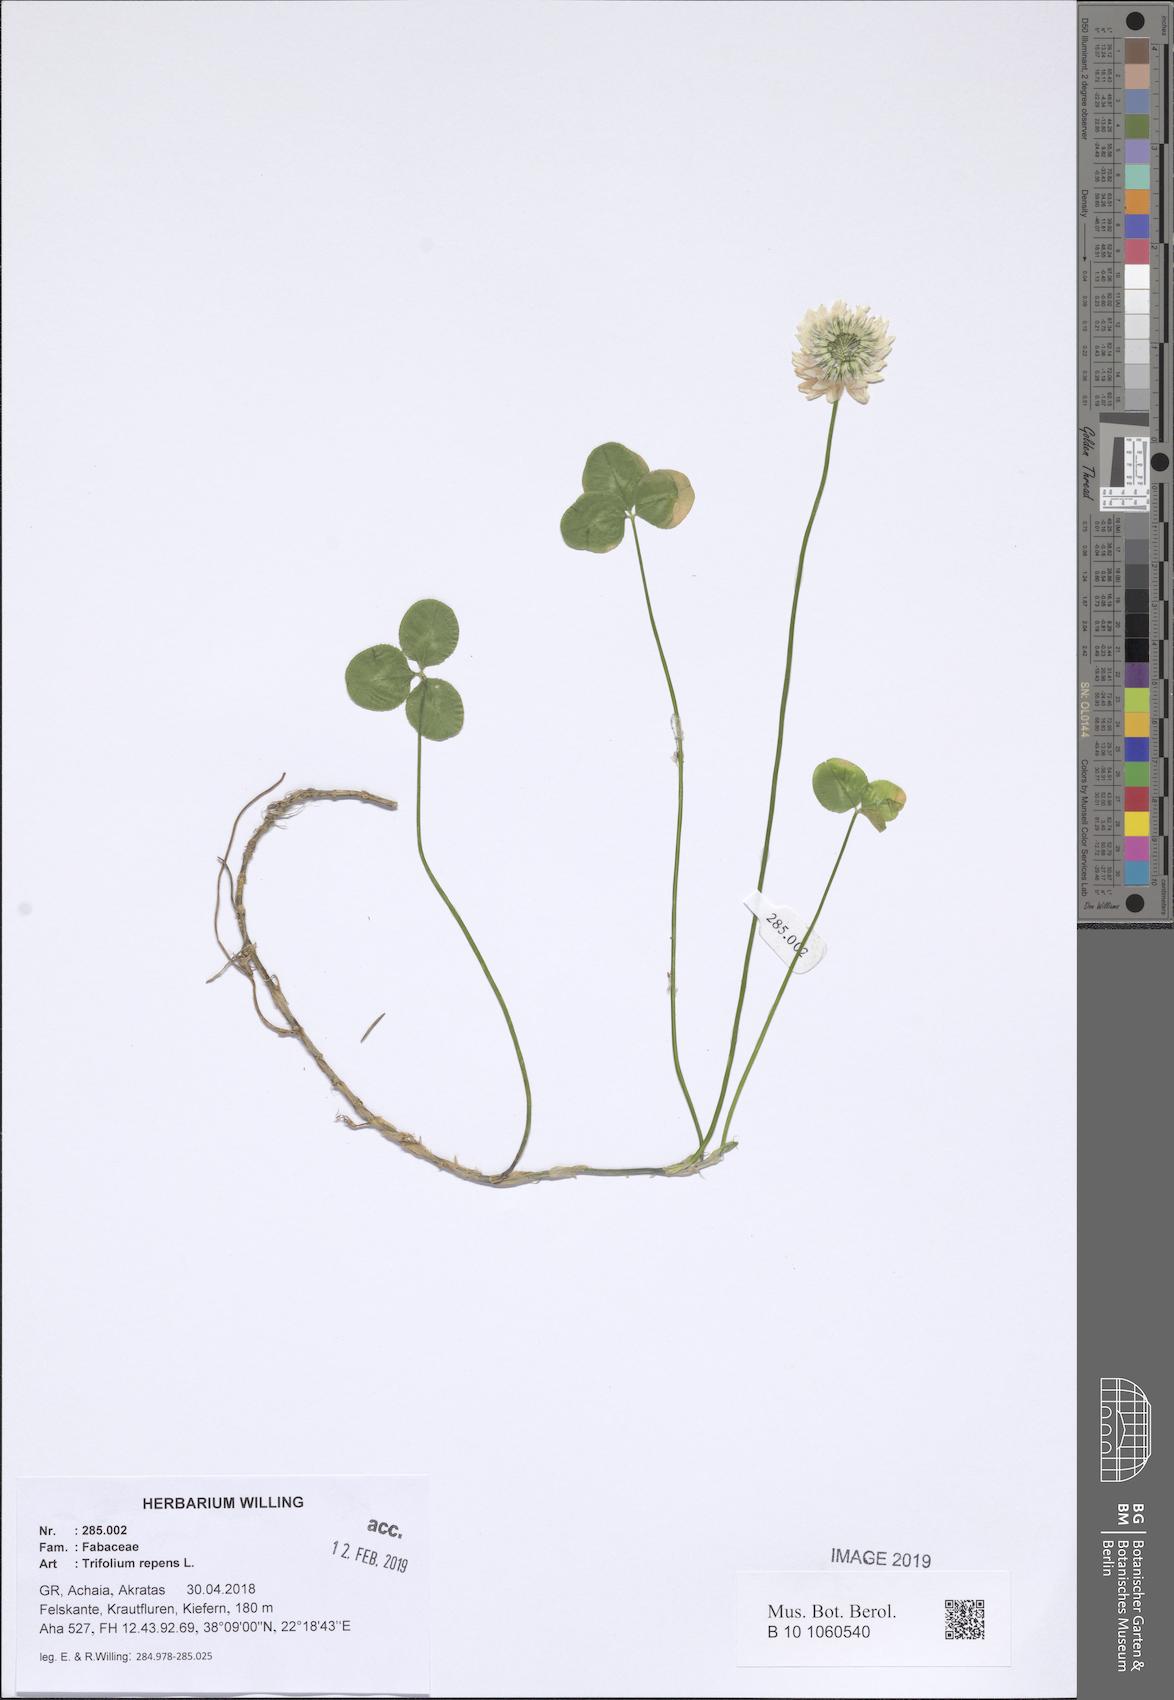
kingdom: Plantae
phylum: Tracheophyta
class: Magnoliopsida
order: Fabales
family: Fabaceae
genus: Trifolium
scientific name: Trifolium repens
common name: White clover
